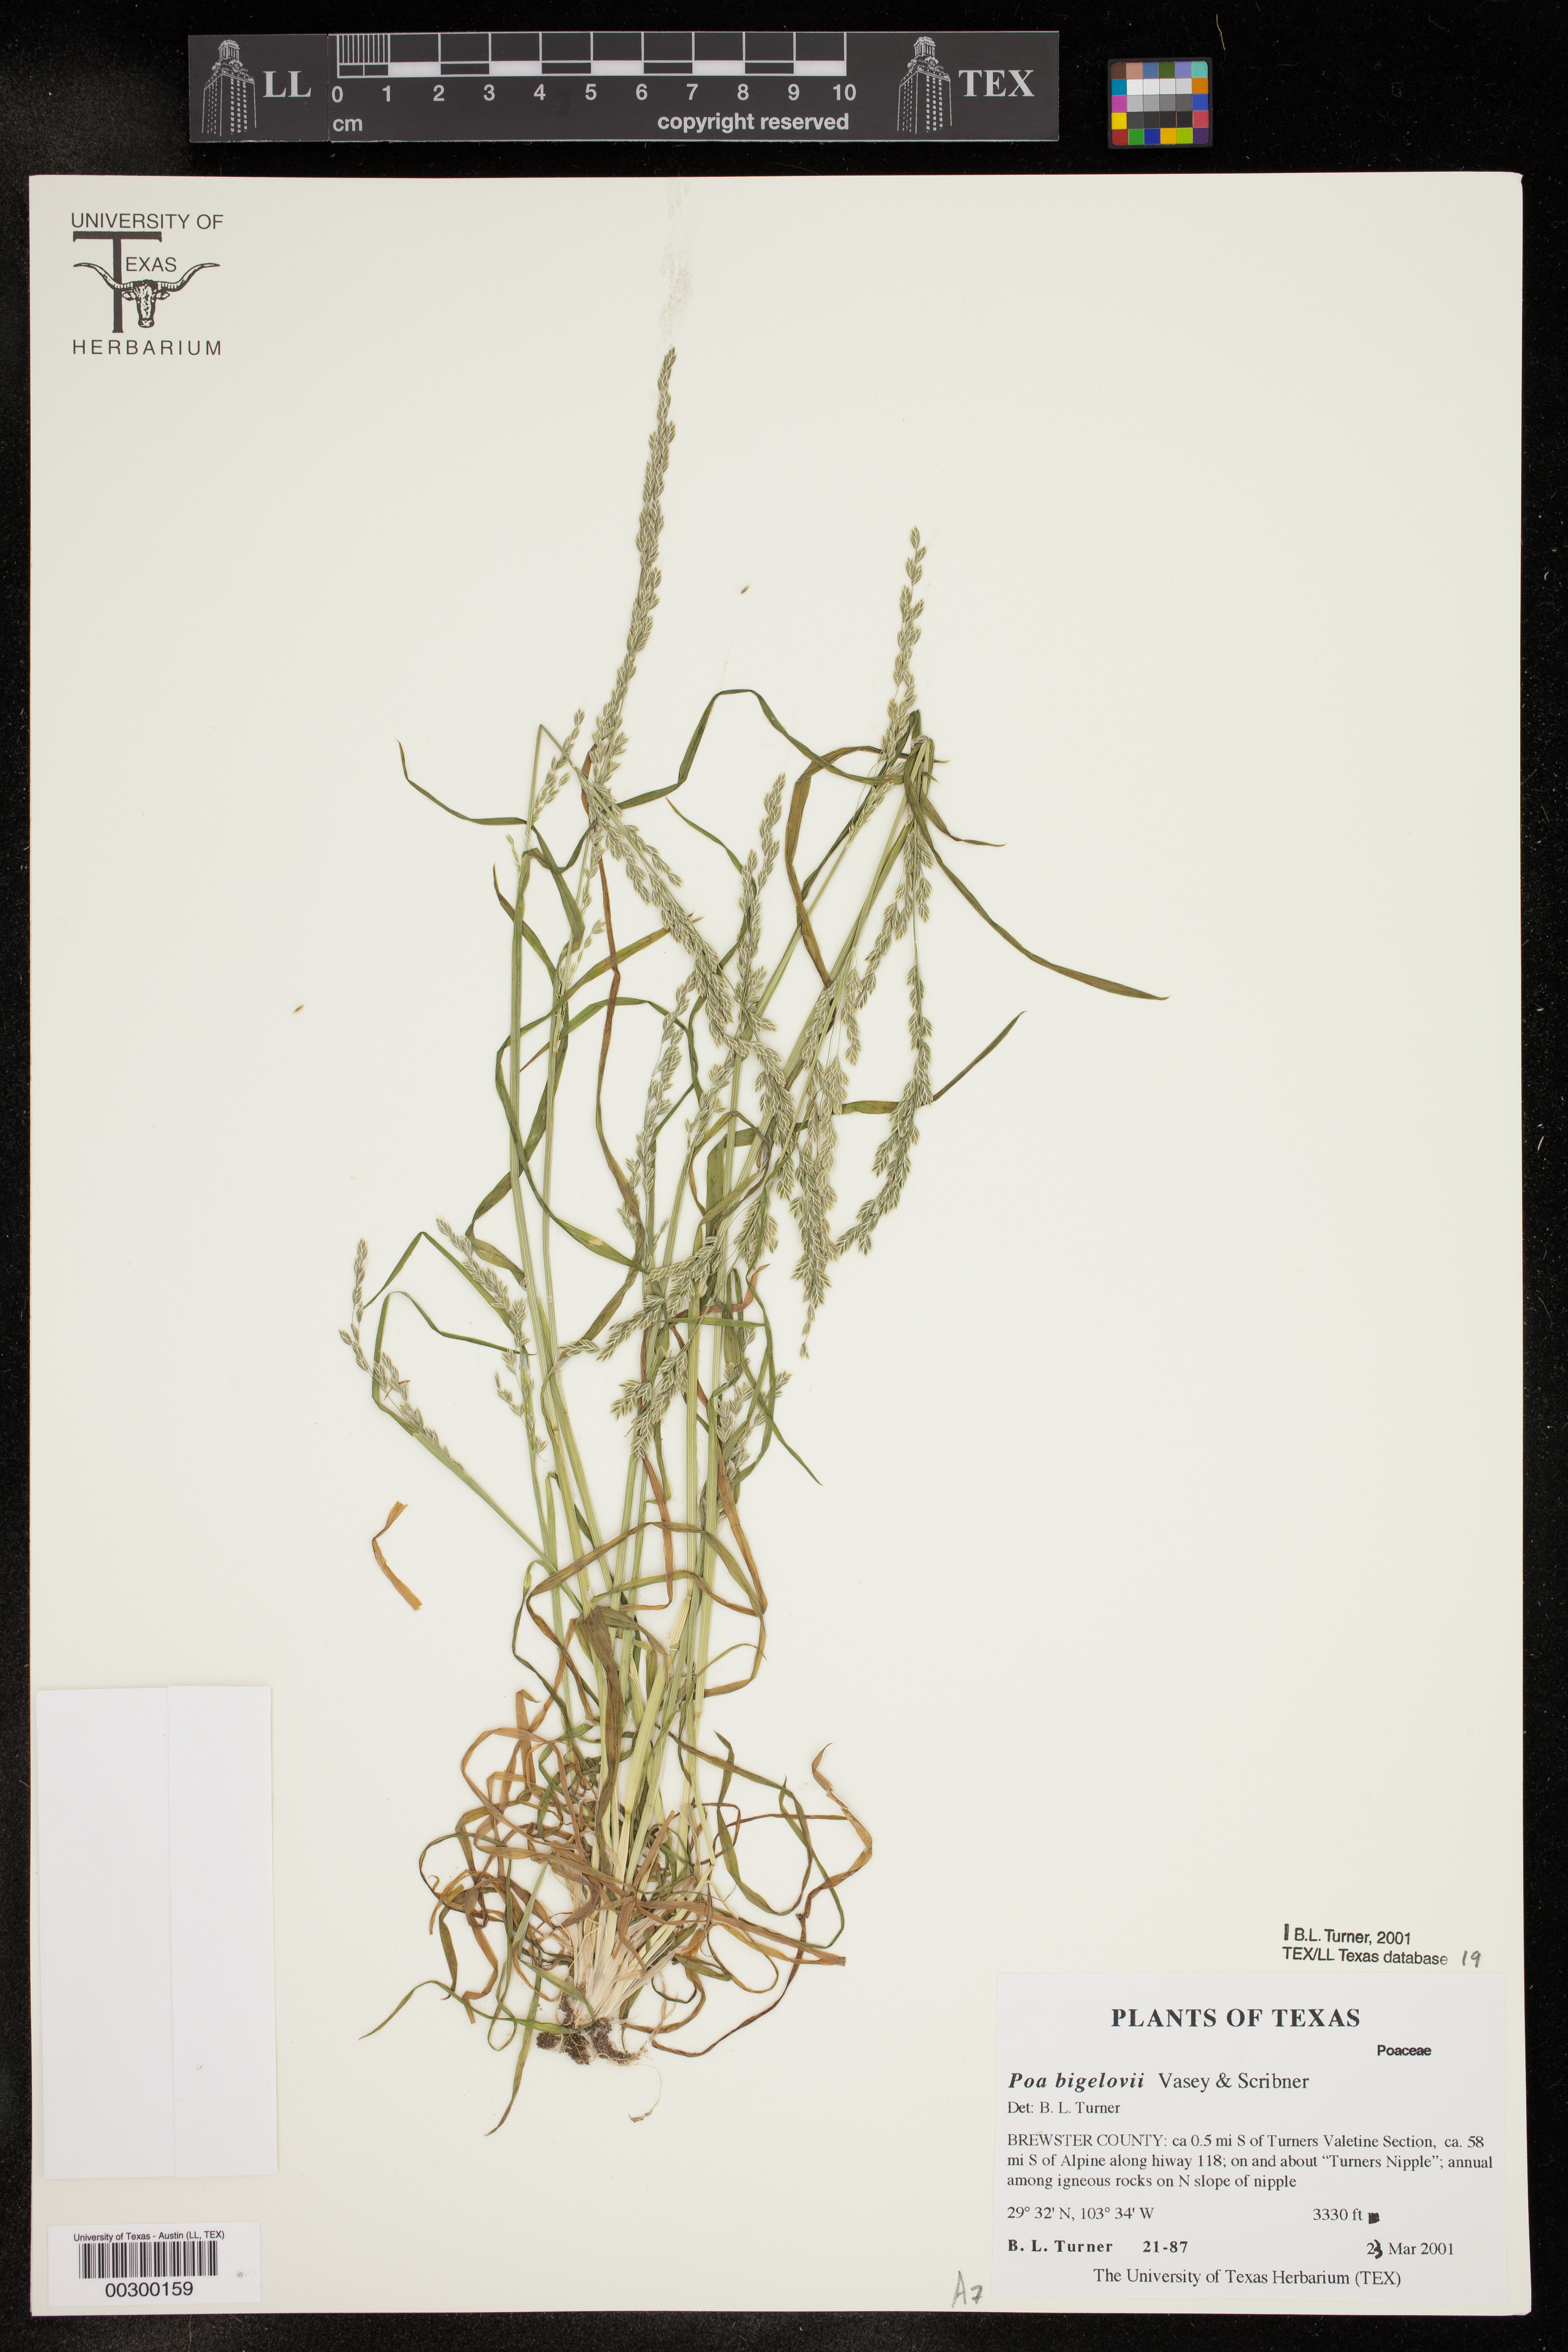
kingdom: Plantae
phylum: Tracheophyta
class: Liliopsida
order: Poales
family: Poaceae
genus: Poa
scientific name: Poa bigelovii
